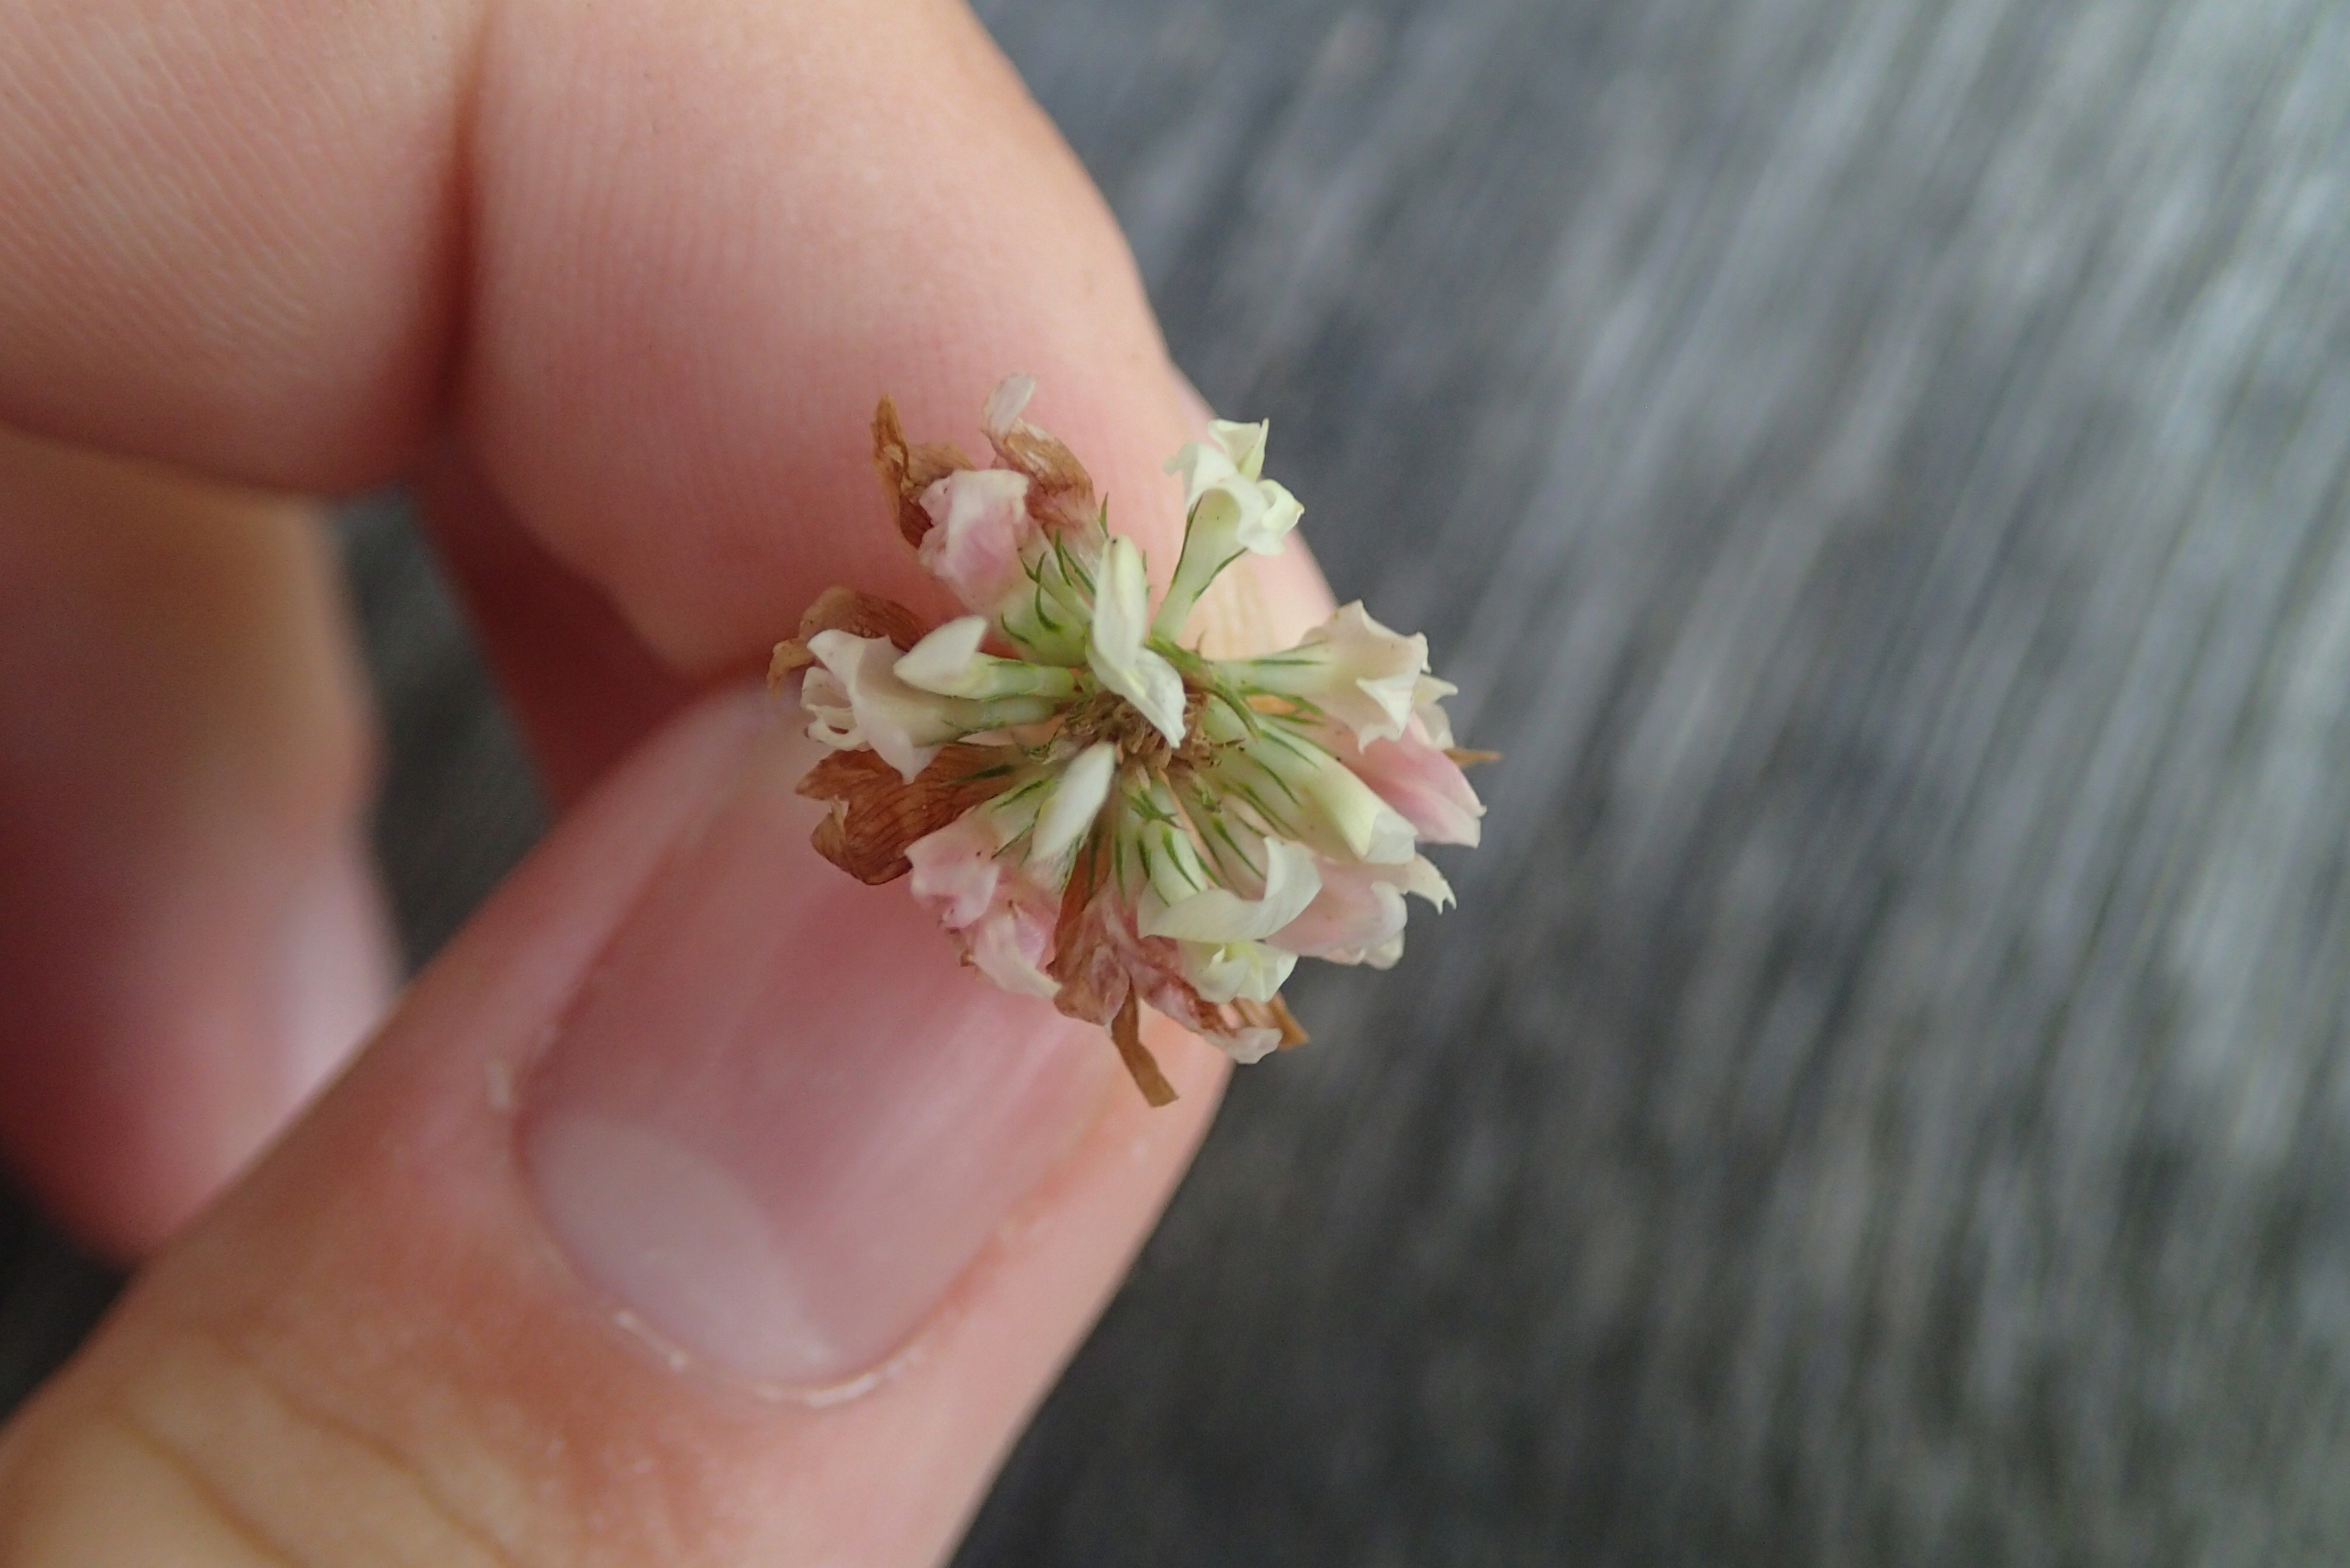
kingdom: Plantae
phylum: Tracheophyta
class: Magnoliopsida
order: Fabales
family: Fabaceae
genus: Trifolium
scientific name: Trifolium hybridum
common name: Alsike-kløver
